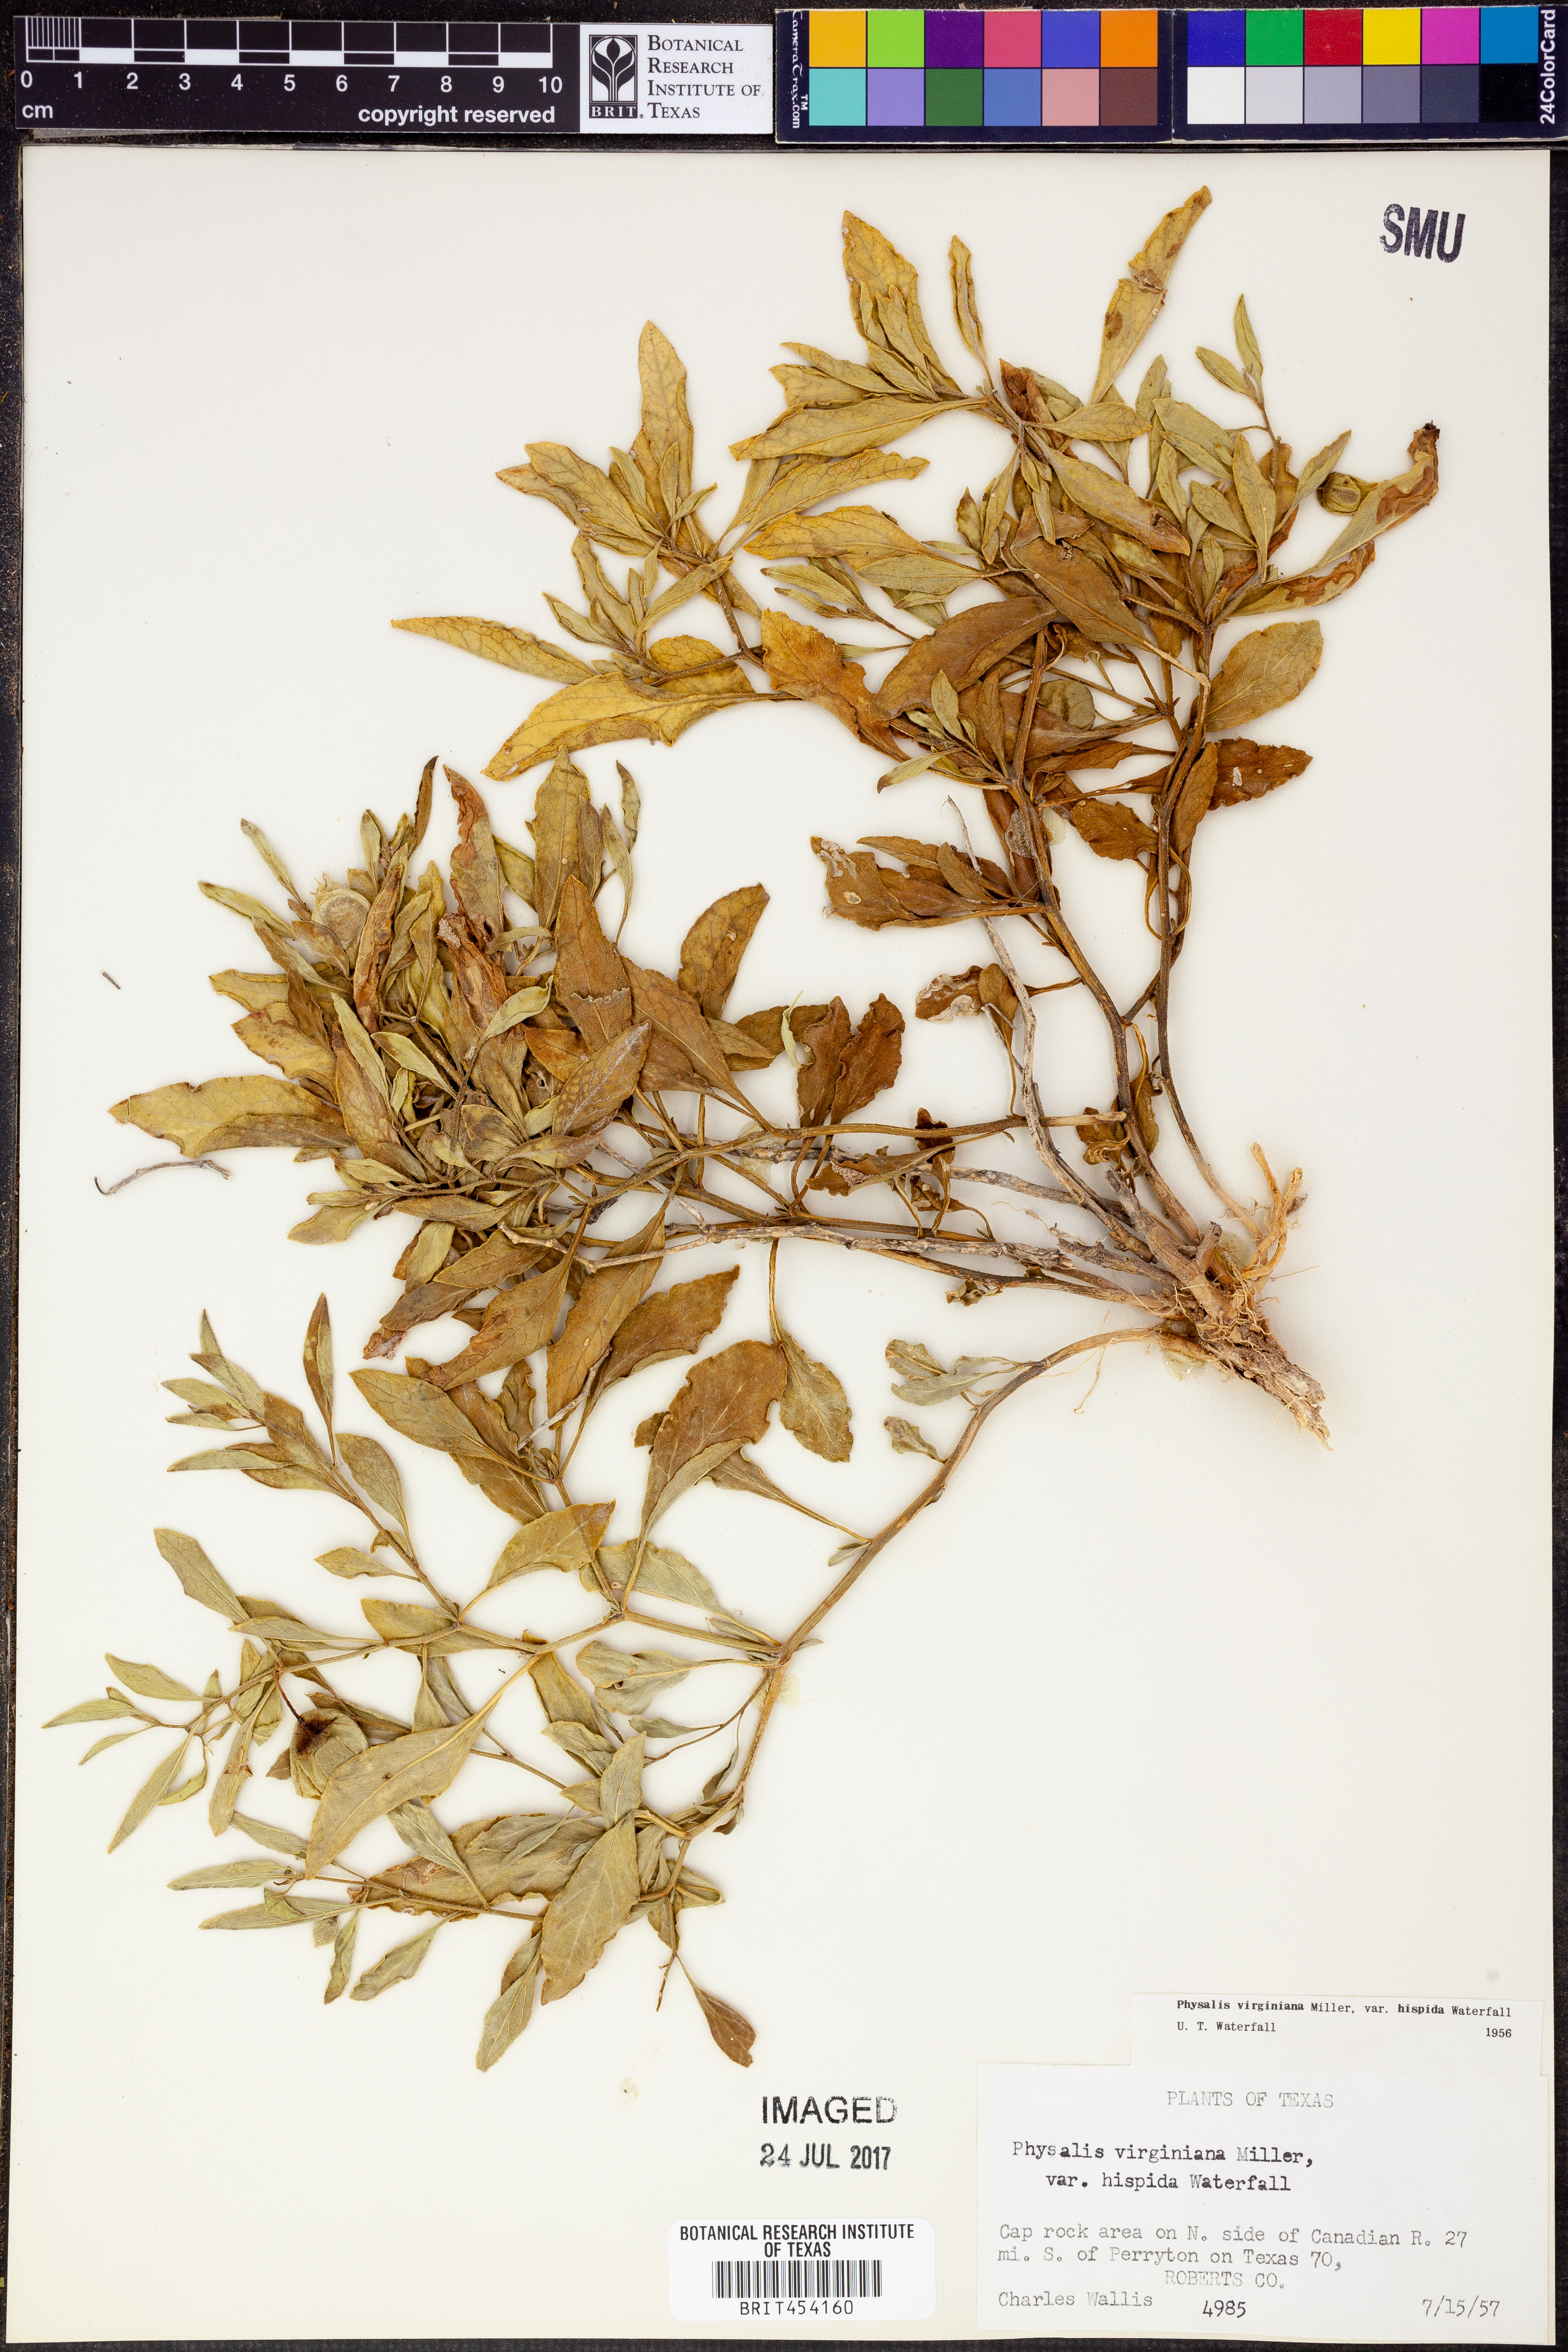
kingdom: Plantae
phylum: Tracheophyta
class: Magnoliopsida
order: Solanales
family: Solanaceae
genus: Physalis
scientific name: Physalis pumila
